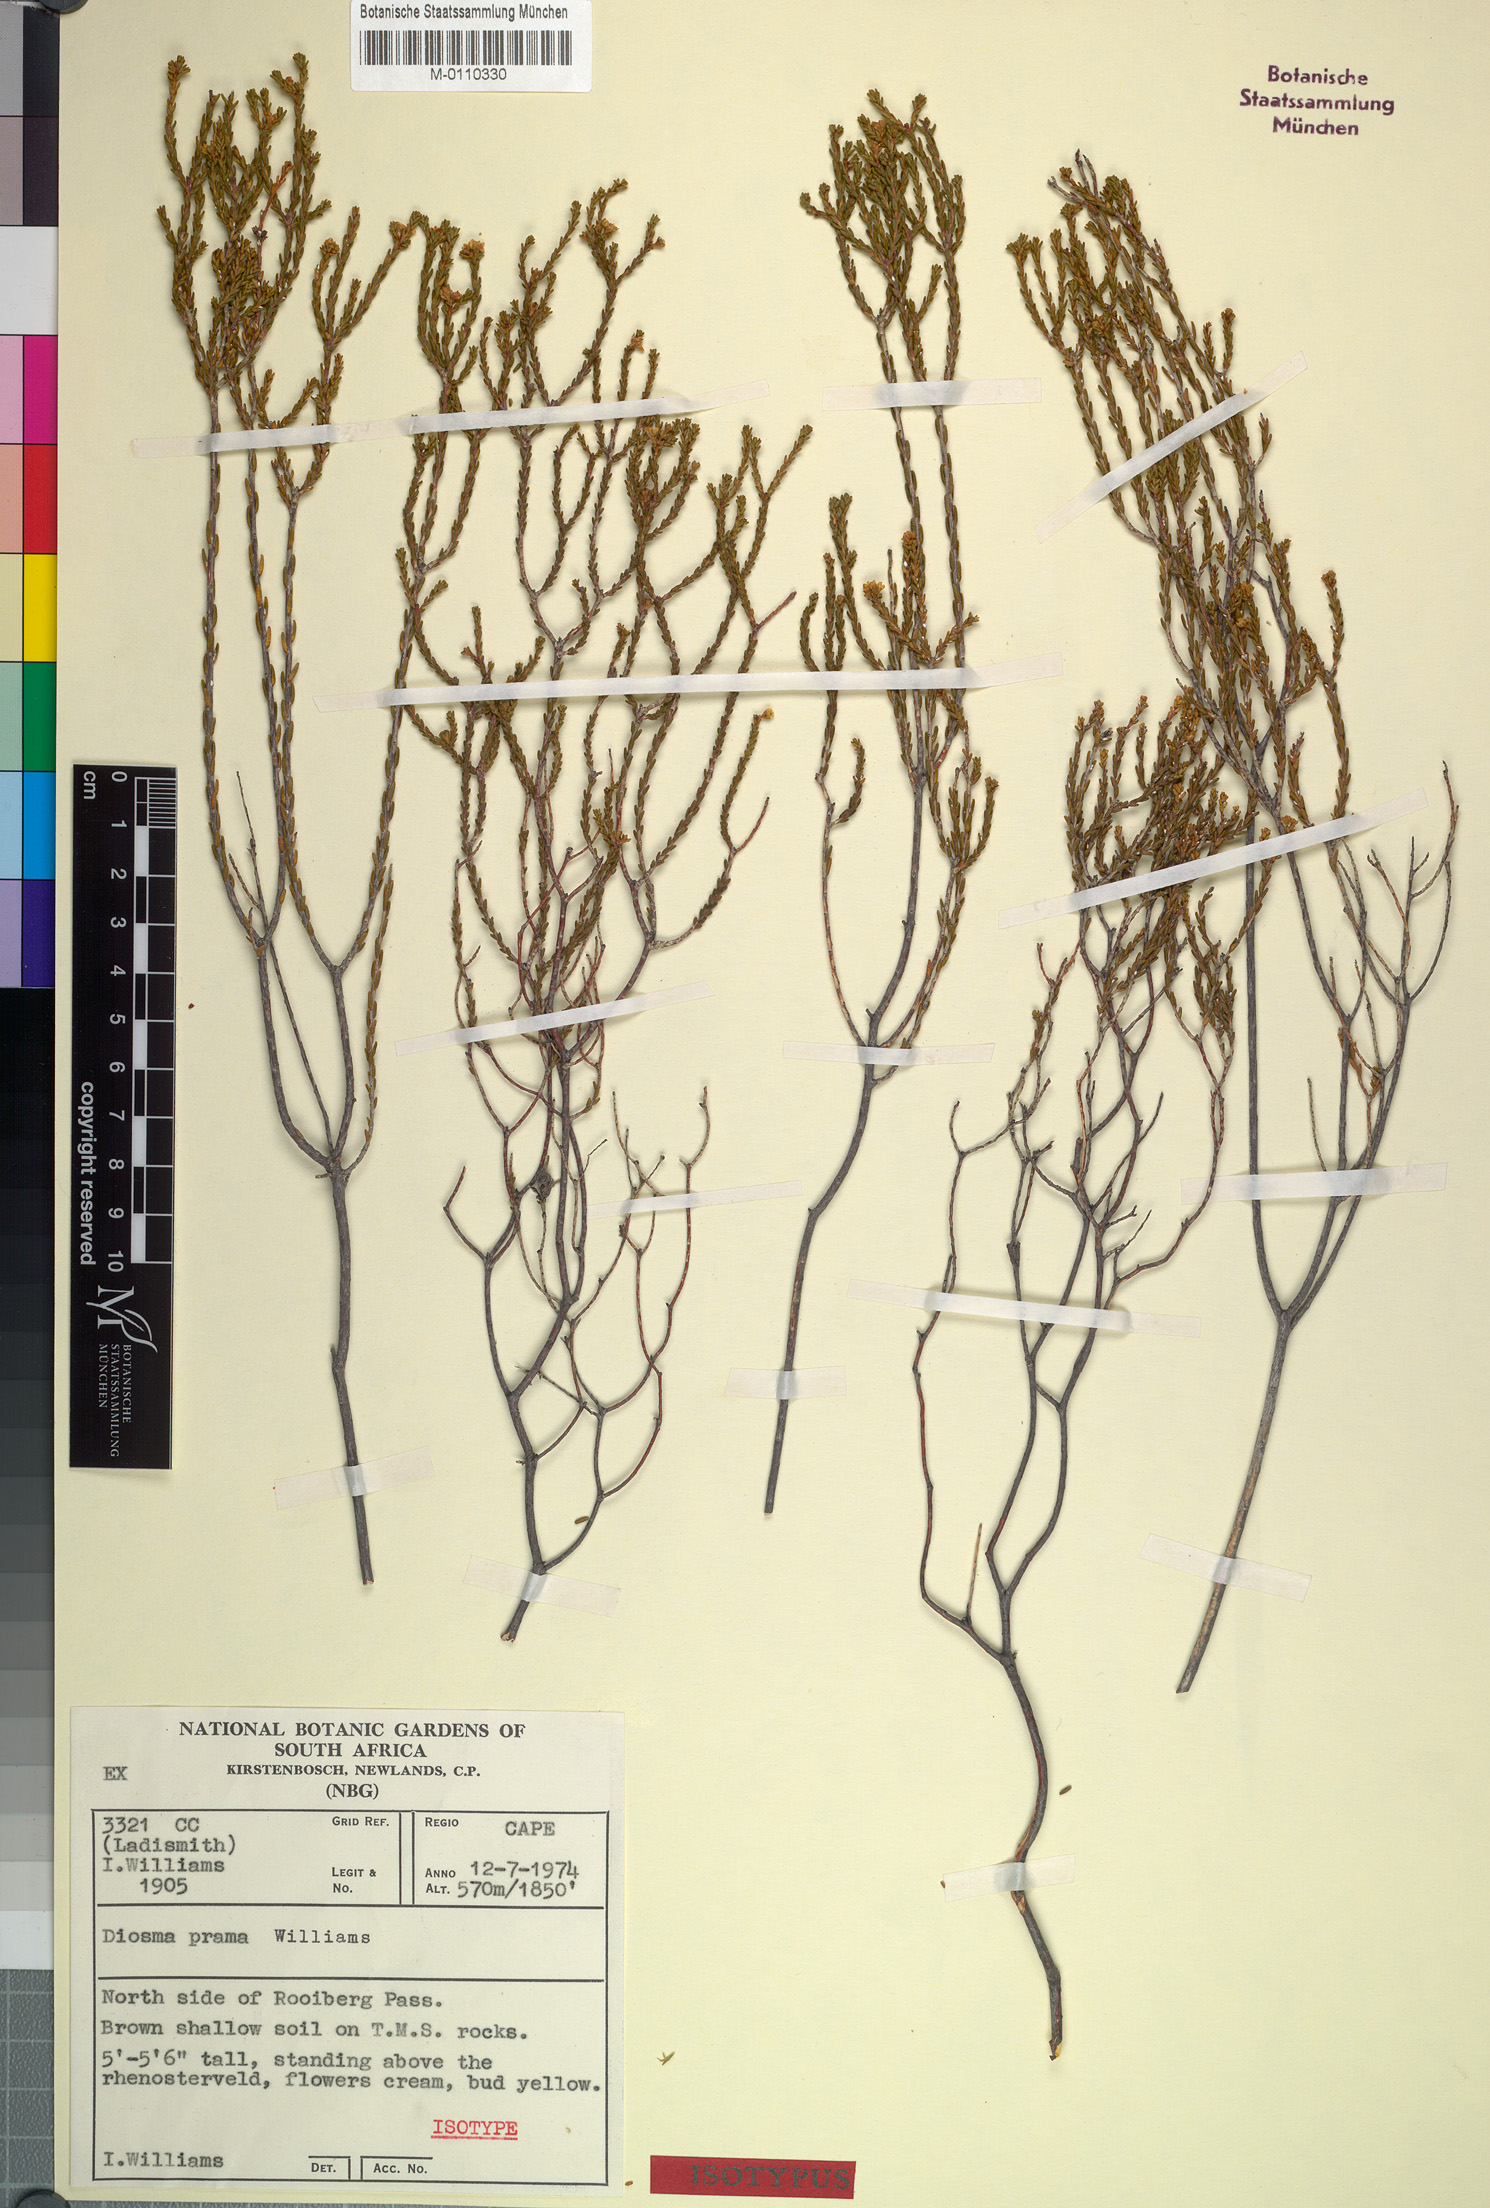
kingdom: Plantae
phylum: Tracheophyta
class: Magnoliopsida
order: Sapindales
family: Rutaceae
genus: Diosma
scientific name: Diosma prama
